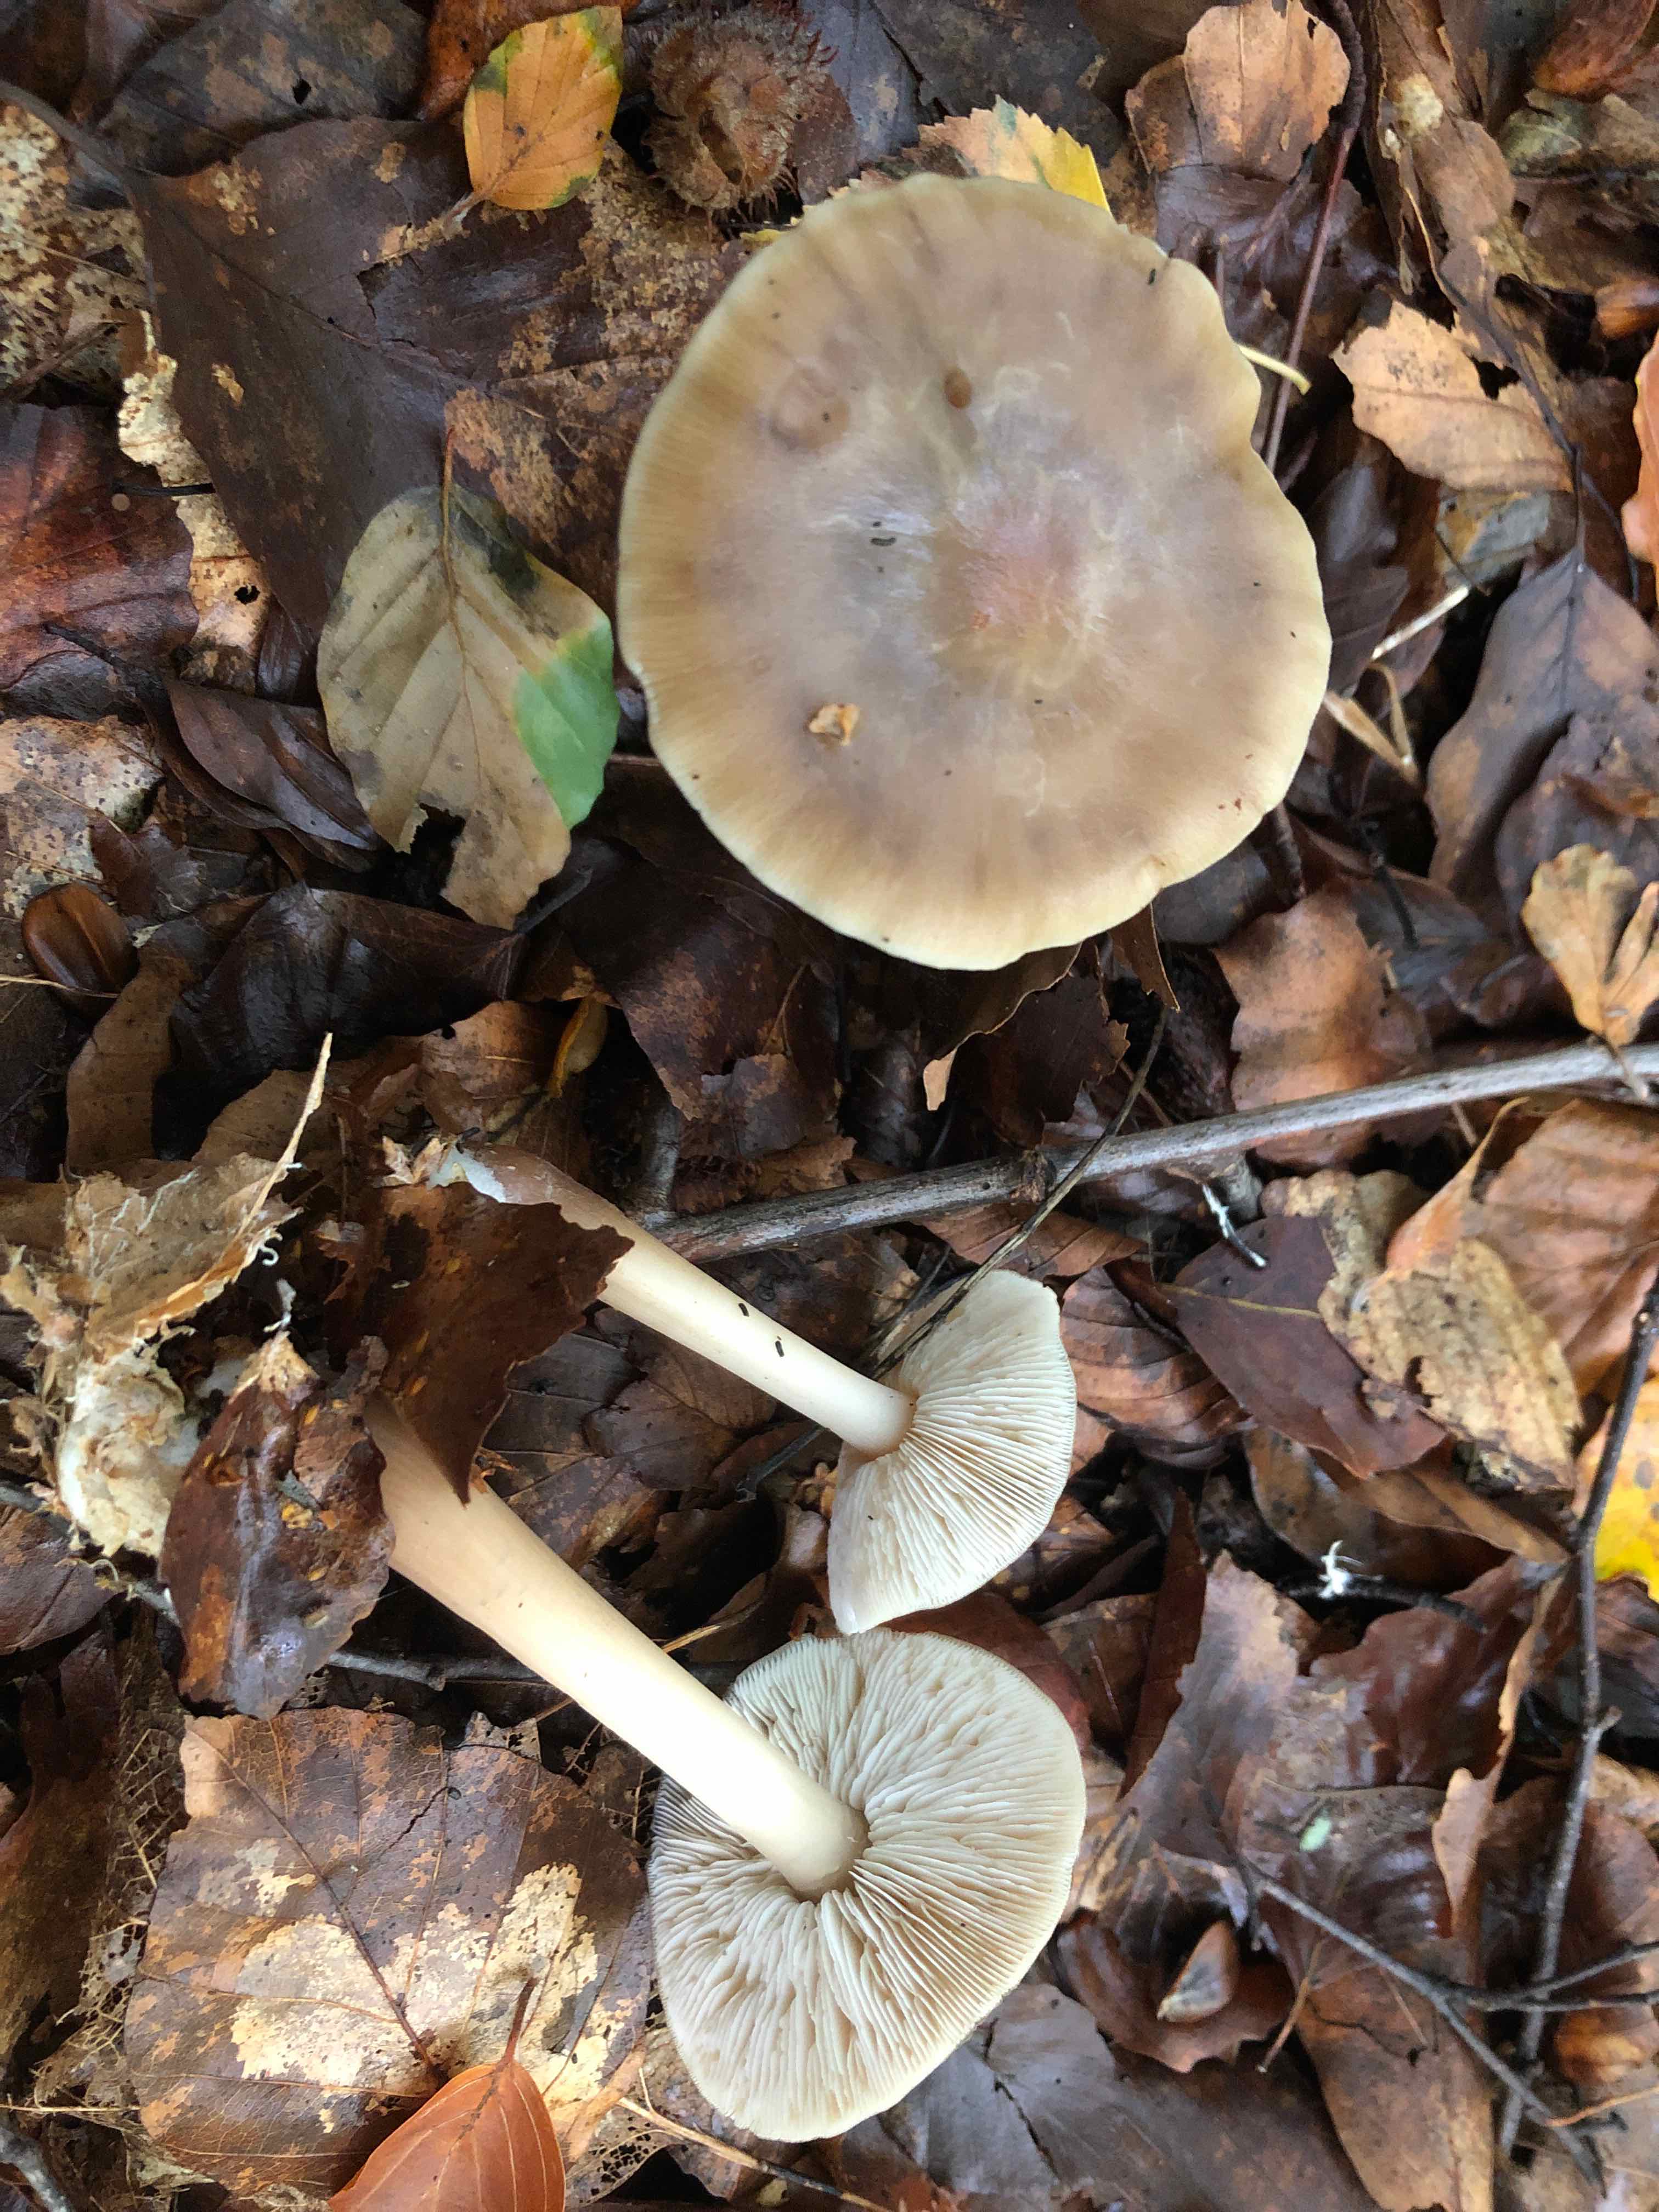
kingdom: Fungi
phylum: Basidiomycota
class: Agaricomycetes
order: Agaricales
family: Omphalotaceae
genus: Rhodocollybia
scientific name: Rhodocollybia asema
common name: horngrå fladhat
